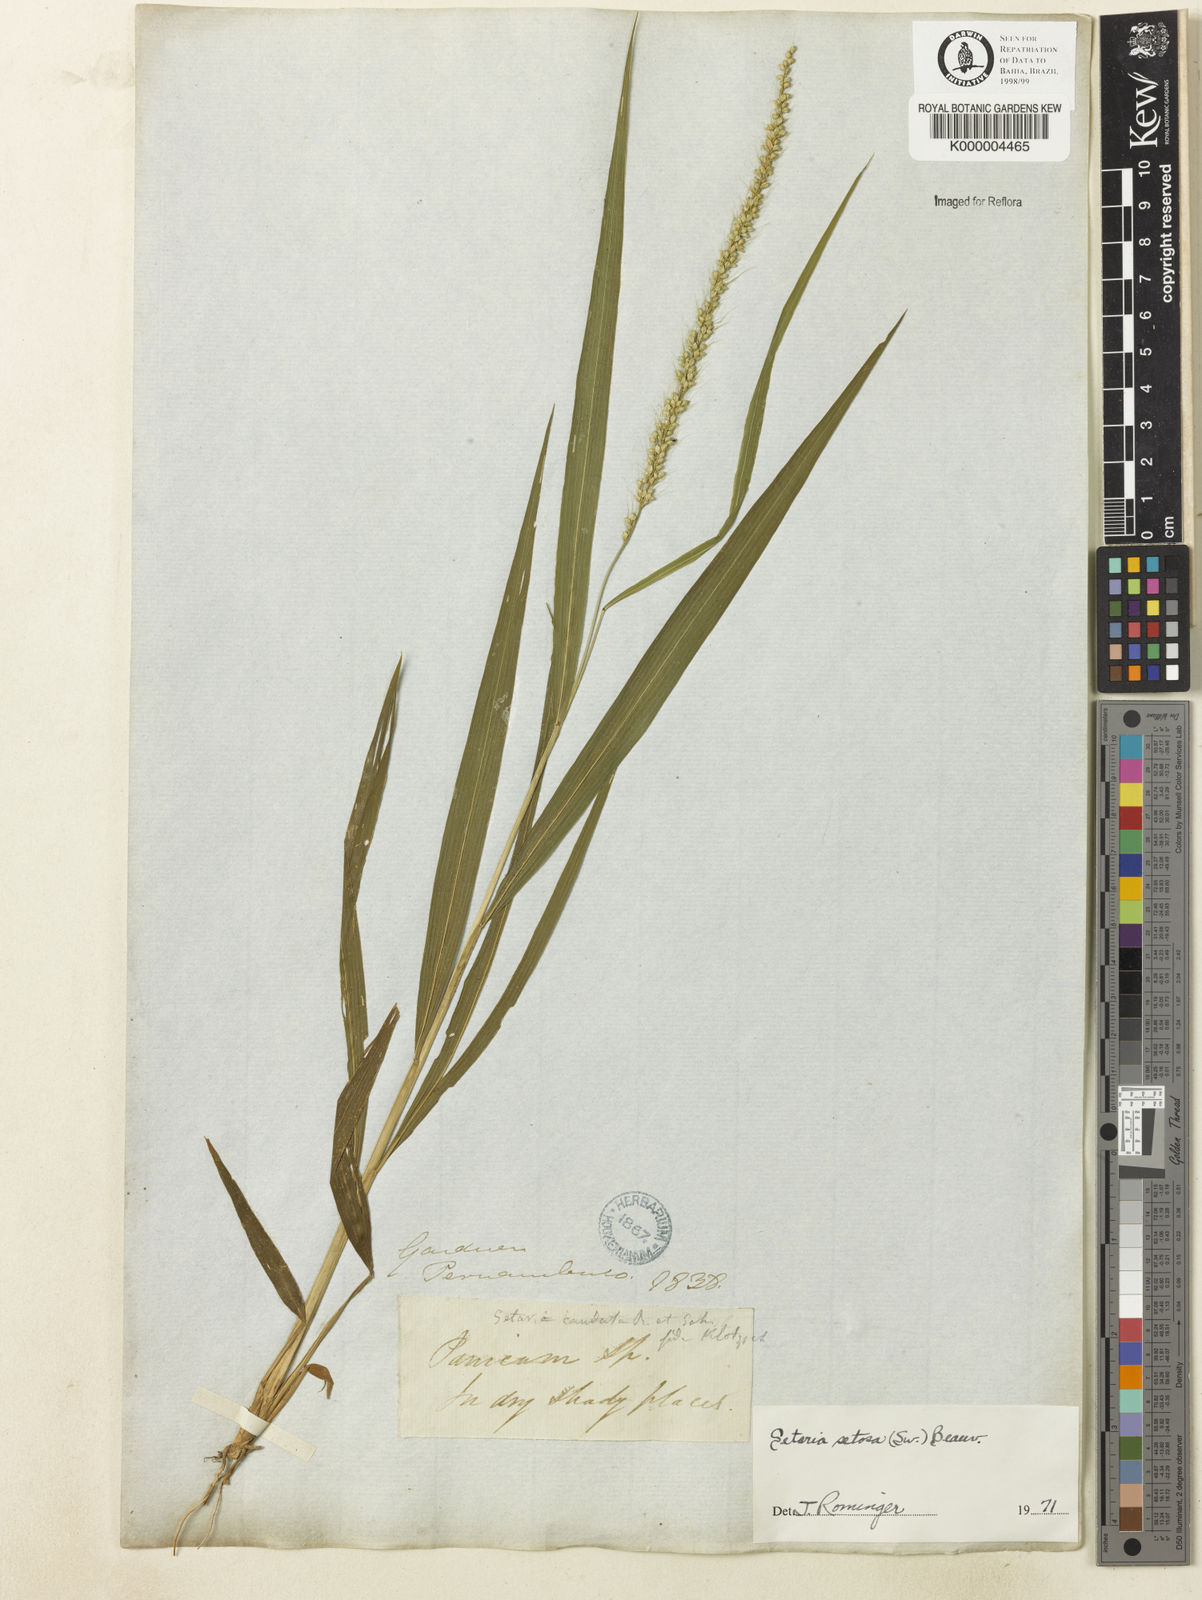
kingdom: Plantae
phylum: Tracheophyta
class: Liliopsida
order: Poales
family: Poaceae
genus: Setaria
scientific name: Setaria setosa
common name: West indies bristle grass
